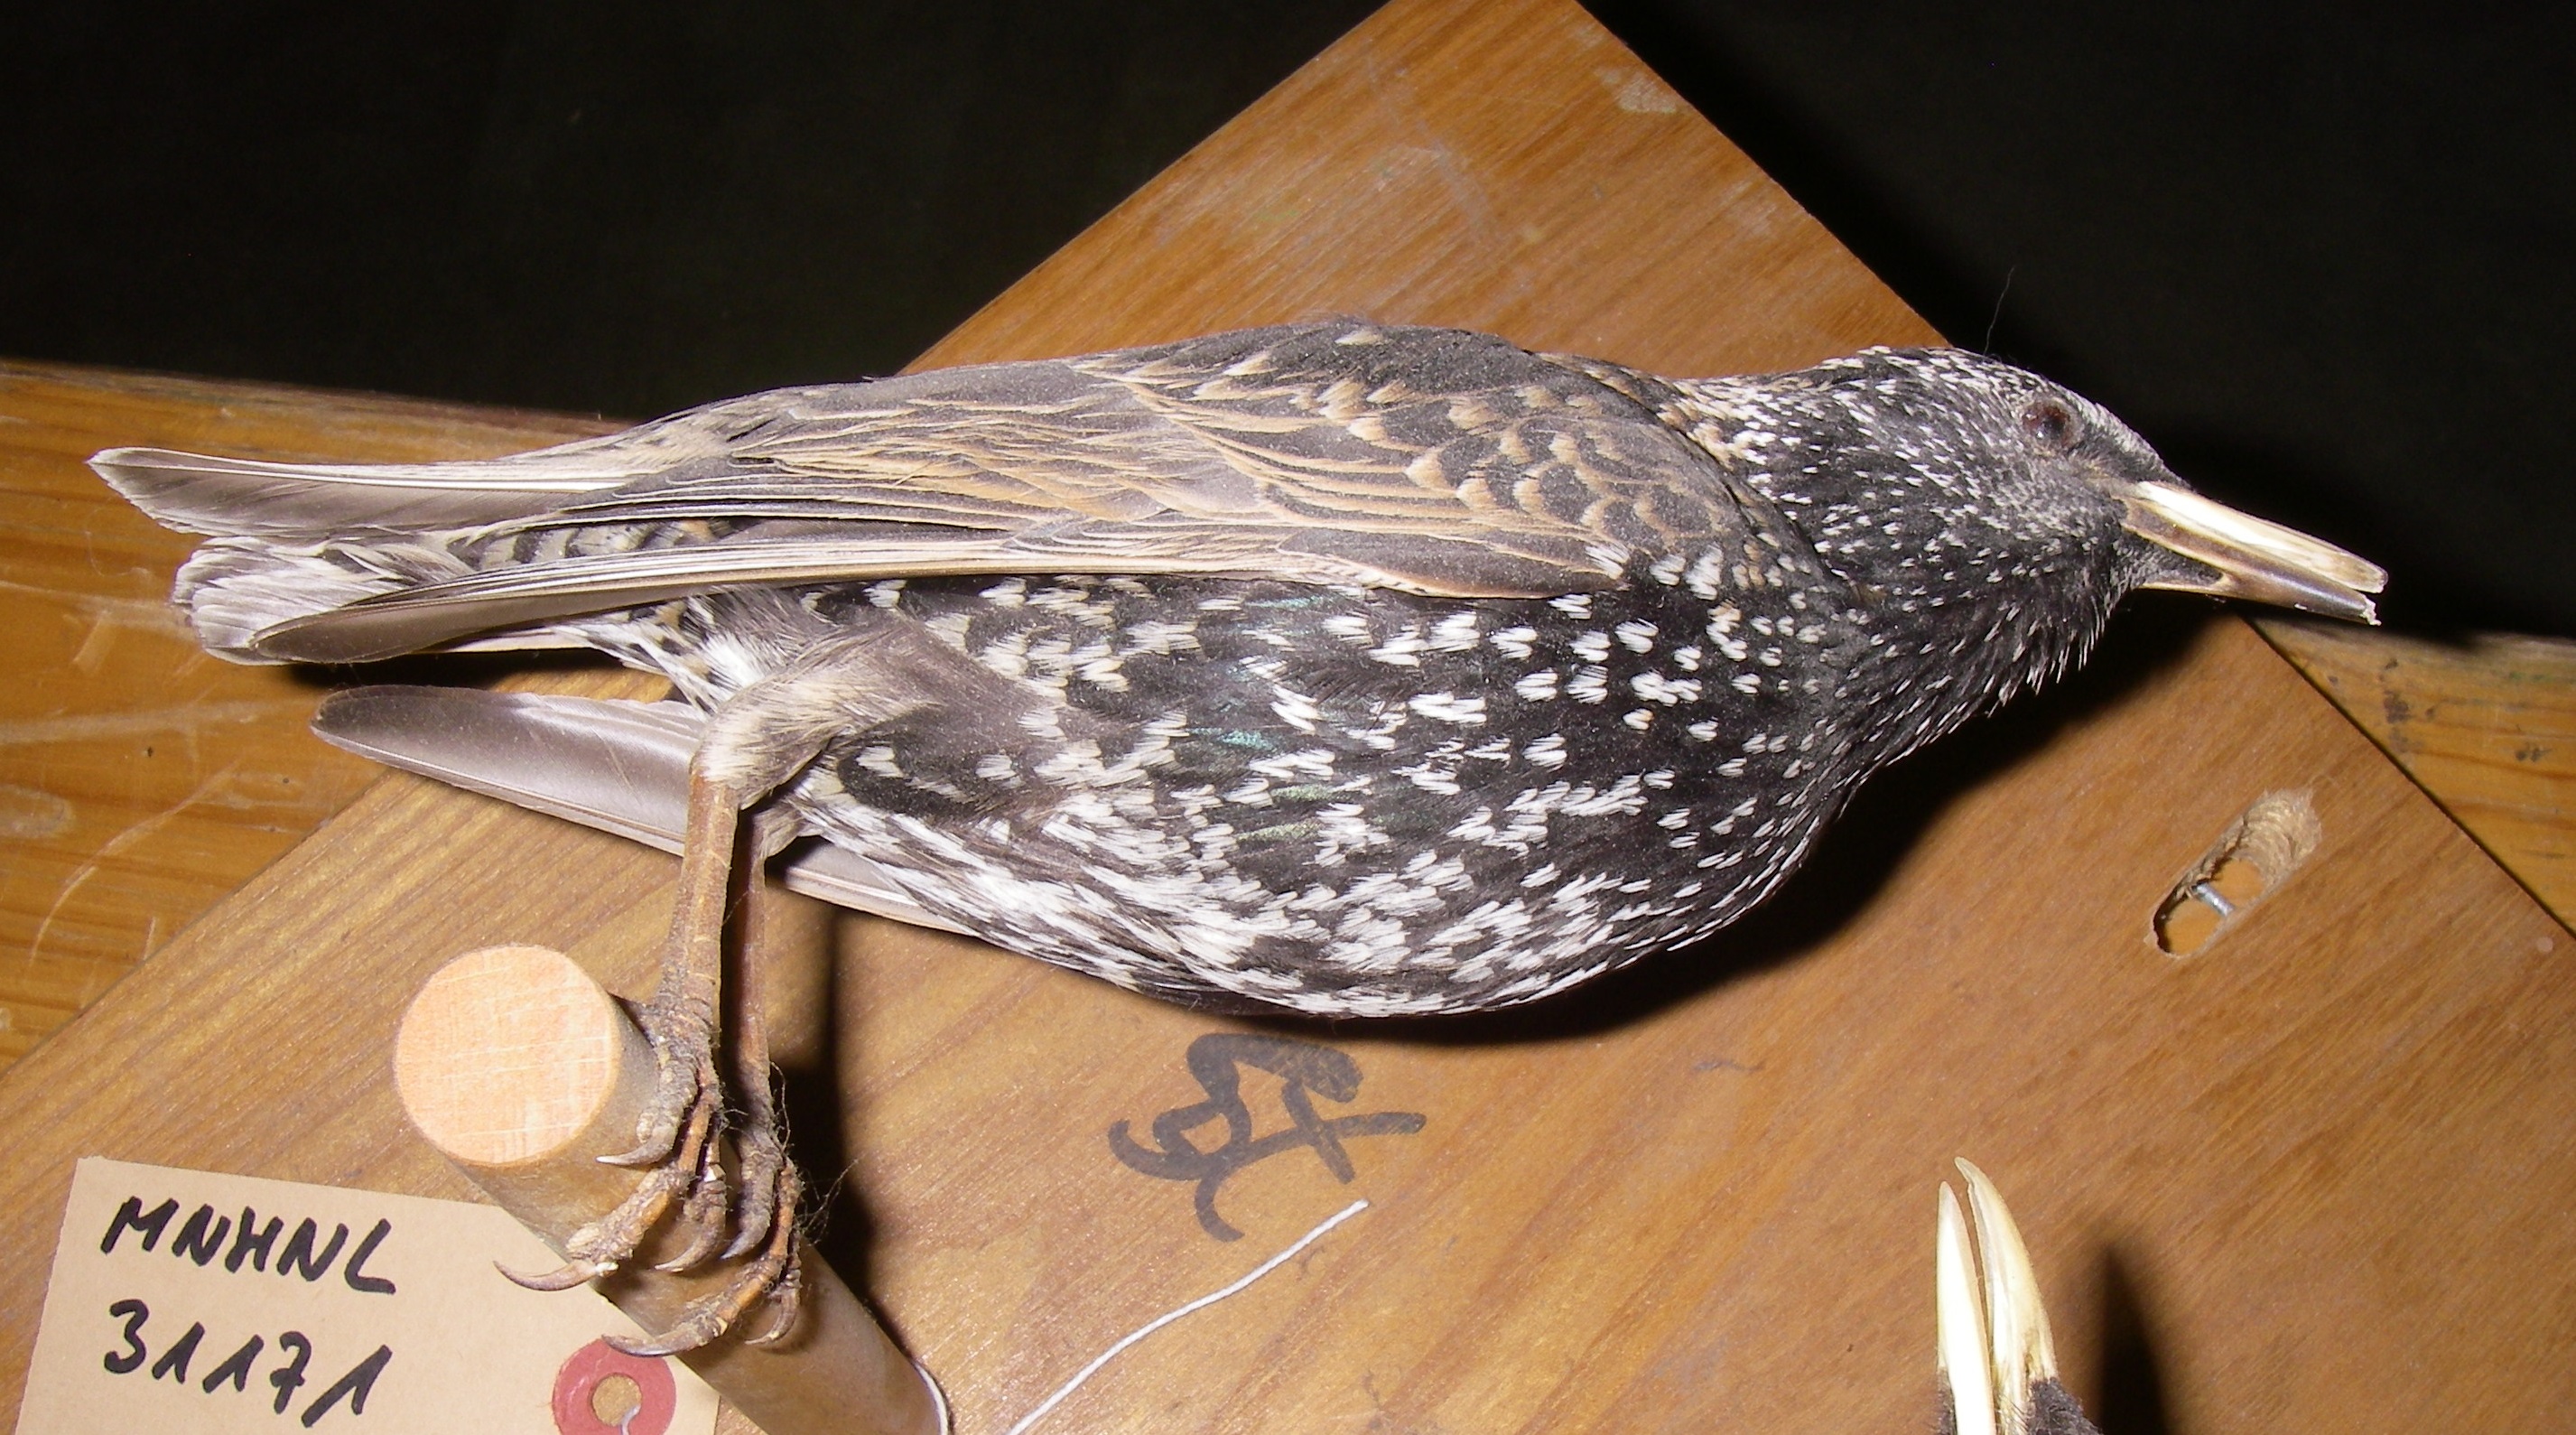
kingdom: Animalia
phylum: Chordata
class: Aves
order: Passeriformes
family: Sturnidae
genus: Sturnus
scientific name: Sturnus vulgaris
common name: Common starling
